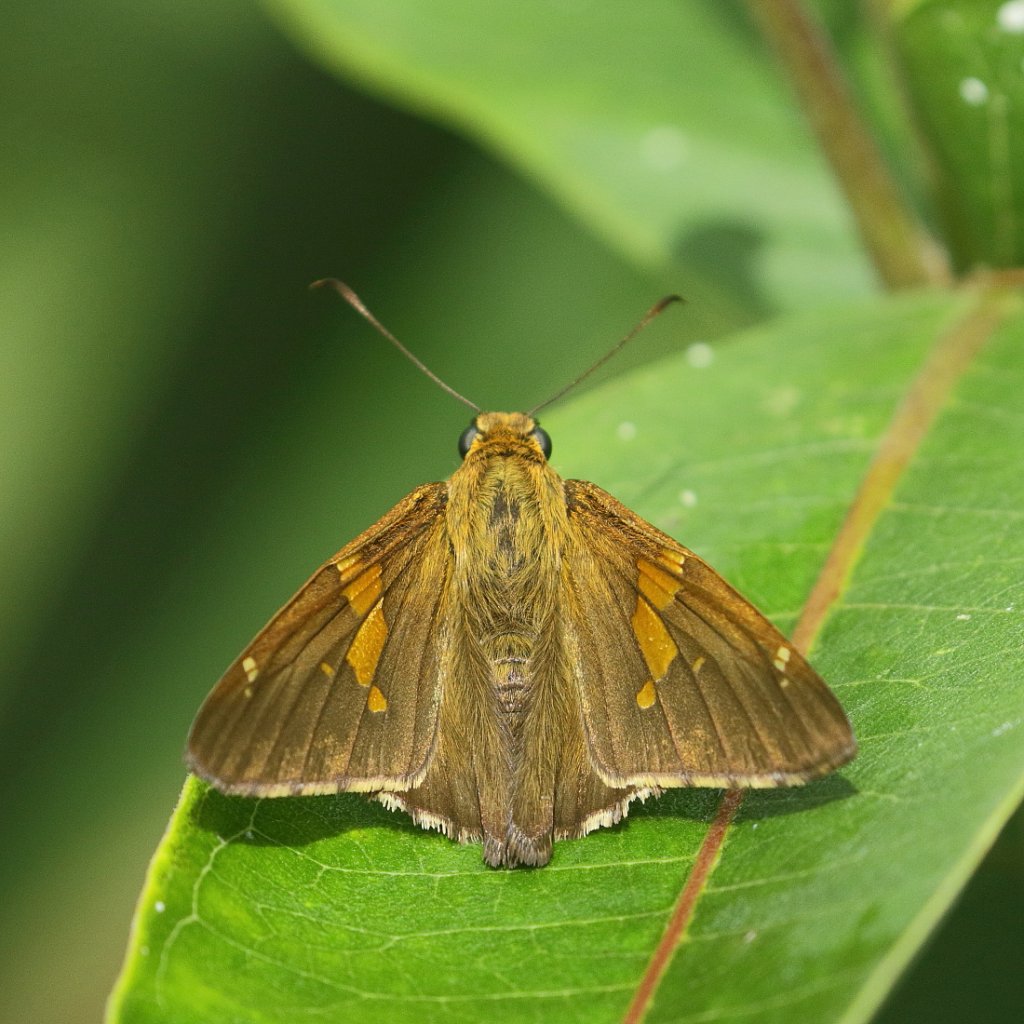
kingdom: Animalia
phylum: Arthropoda
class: Insecta
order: Lepidoptera
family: Hesperiidae
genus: Epargyreus
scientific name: Epargyreus clarus
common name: Silver-spotted Skipper
